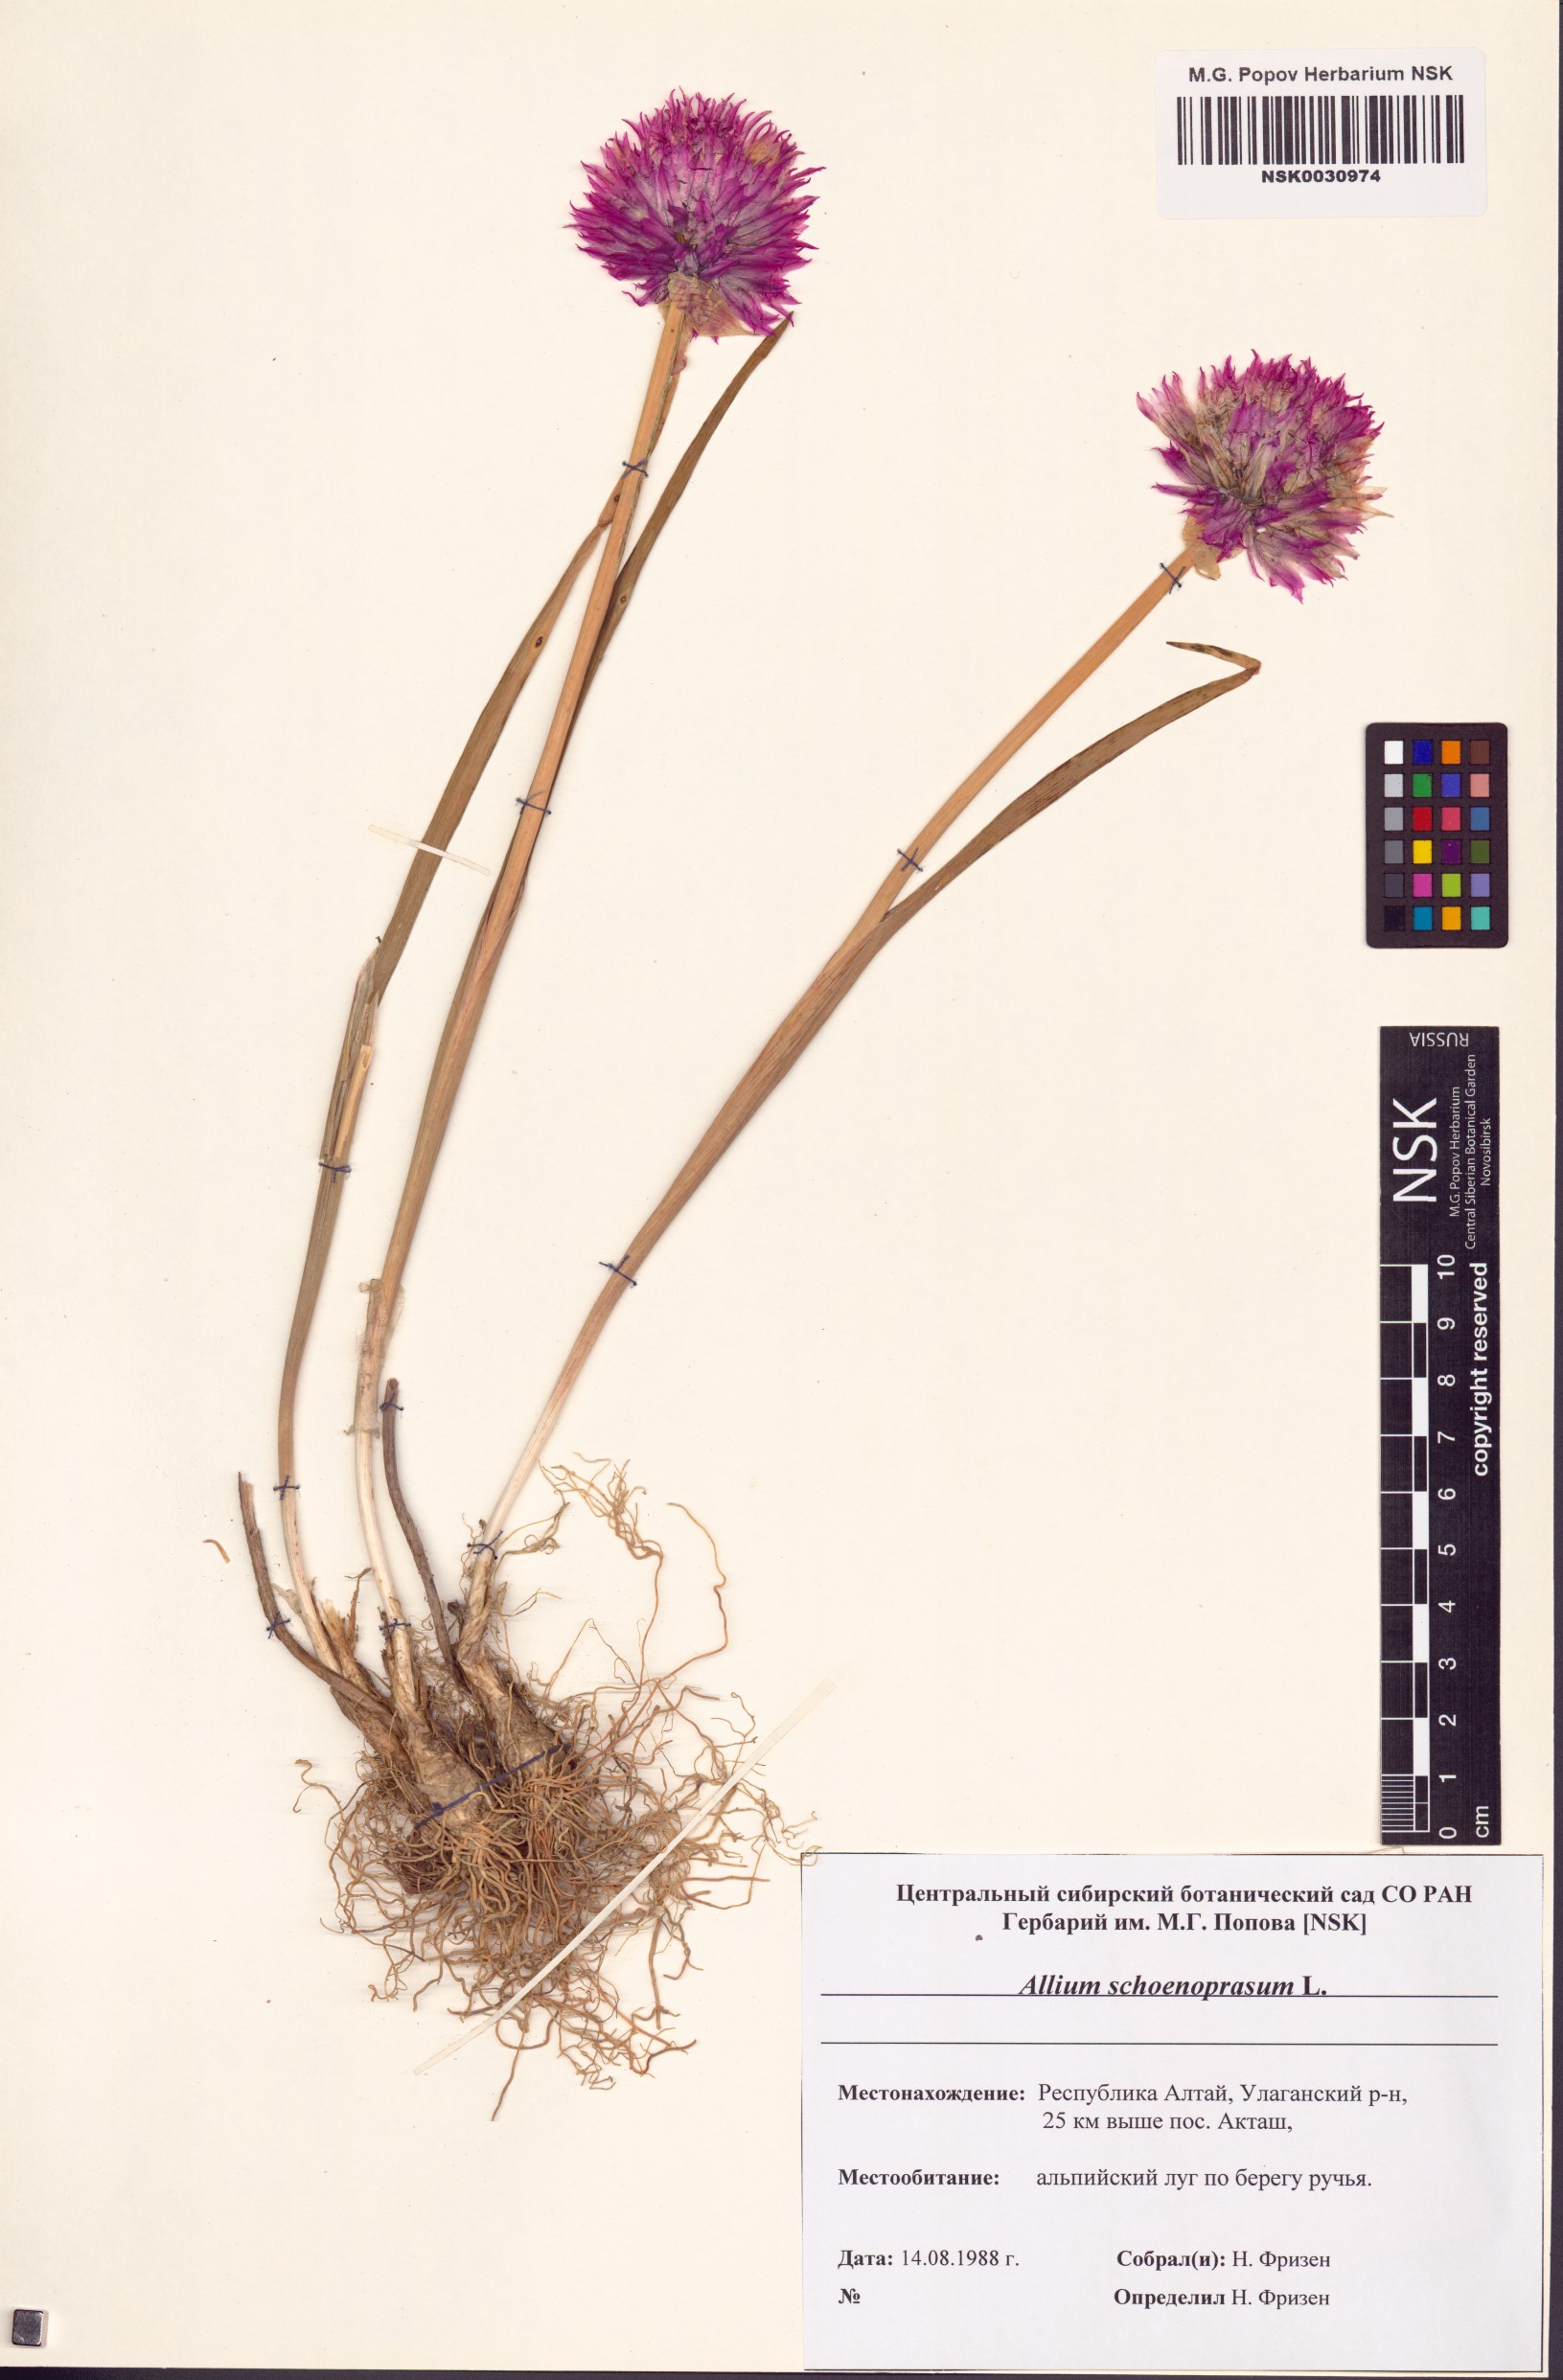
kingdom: Plantae
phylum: Tracheophyta
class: Liliopsida
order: Asparagales
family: Amaryllidaceae
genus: Allium
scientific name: Allium schoenoprasum
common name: Chives
